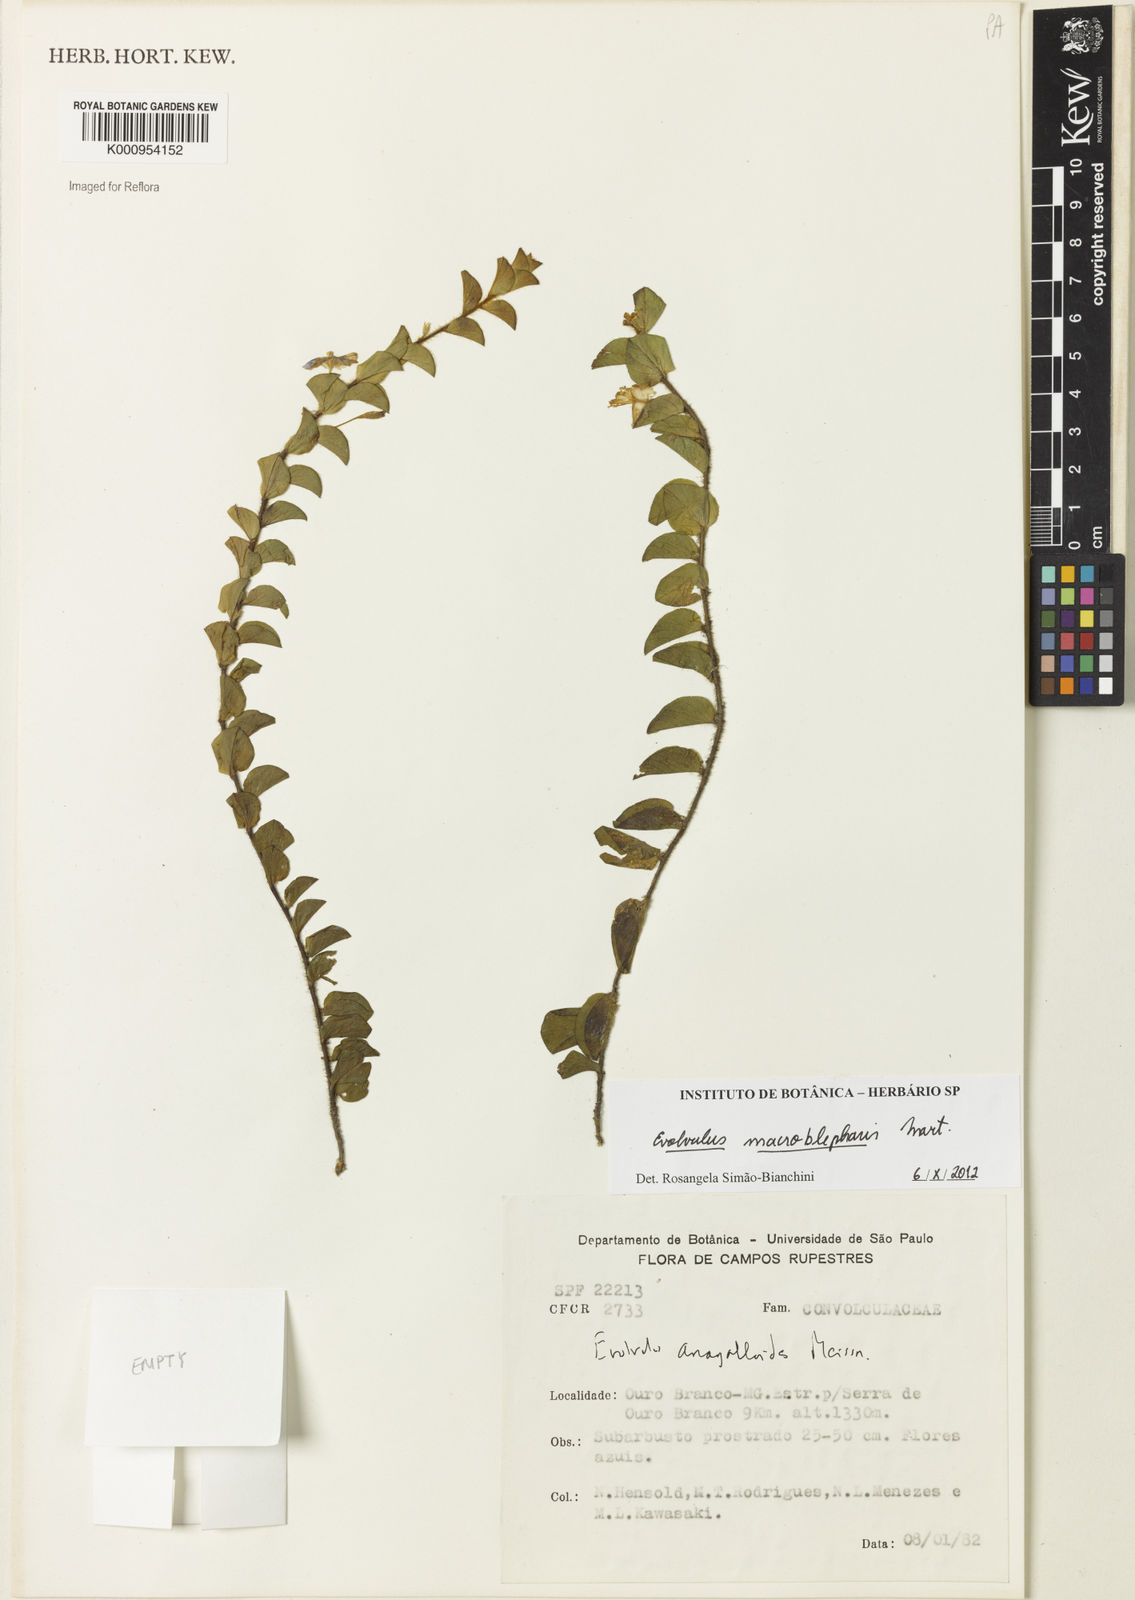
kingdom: Plantae
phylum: Tracheophyta
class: Magnoliopsida
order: Solanales
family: Convolvulaceae
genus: Evolvulus
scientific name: Evolvulus macroblepharis
